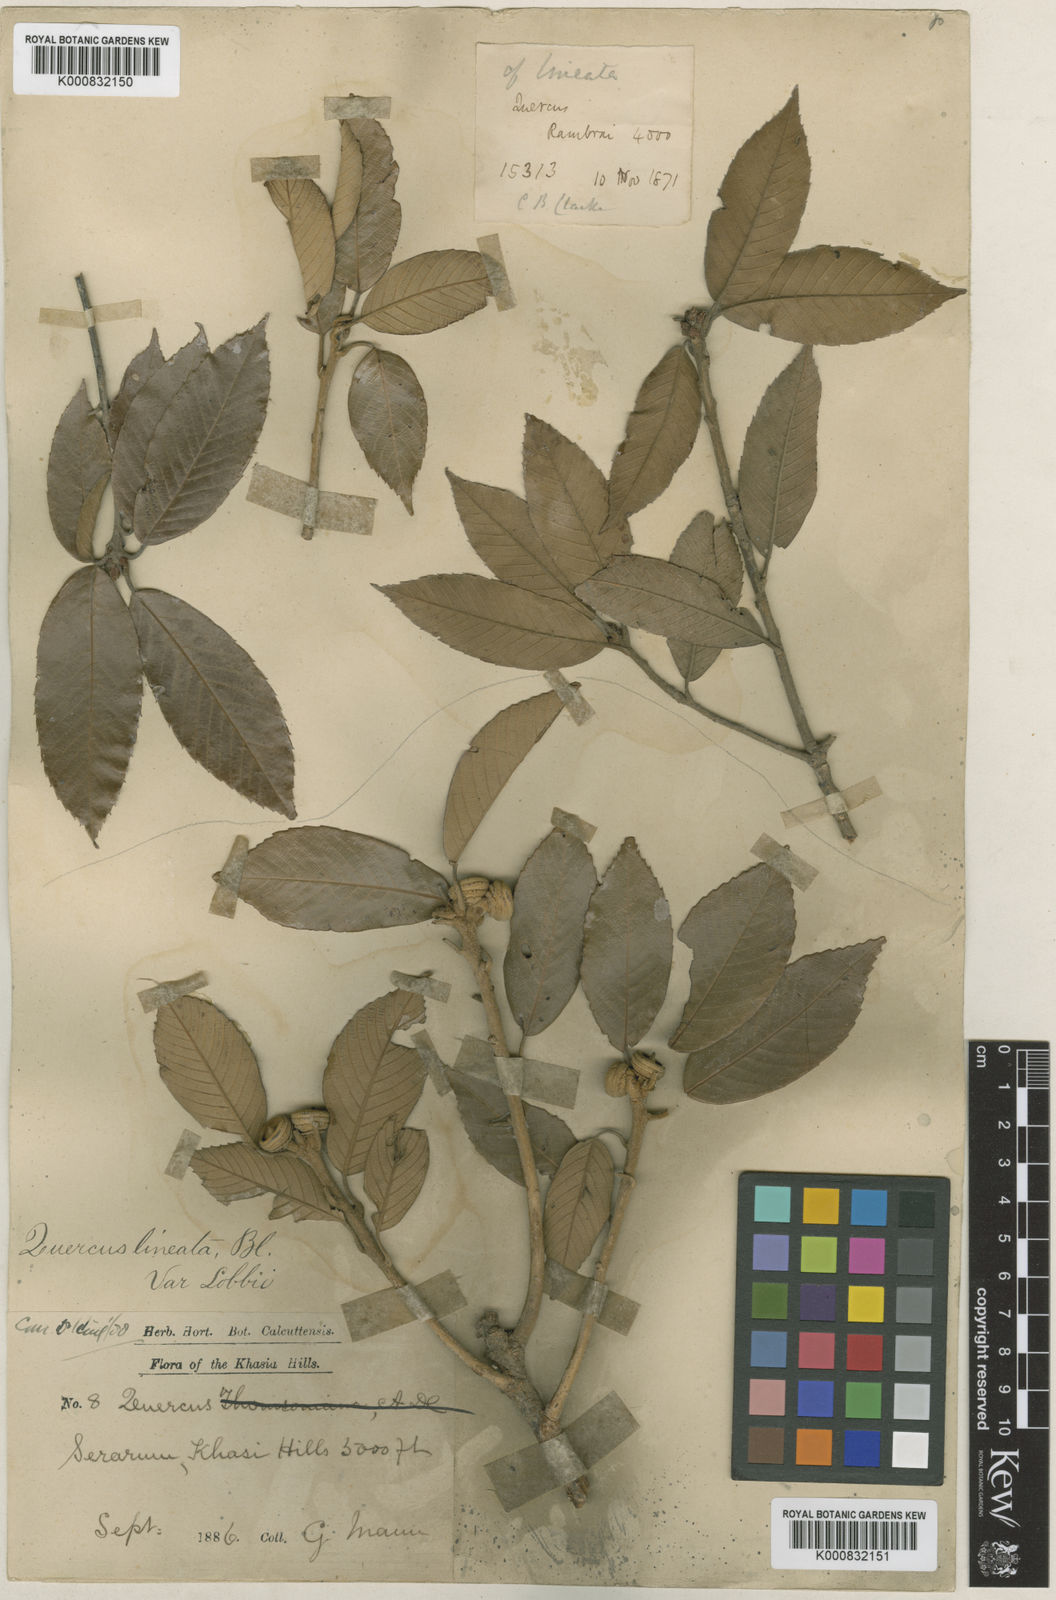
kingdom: Plantae
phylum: Tracheophyta
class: Magnoliopsida
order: Fagales
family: Fagaceae
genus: Quercus
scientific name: Quercus lobbii
